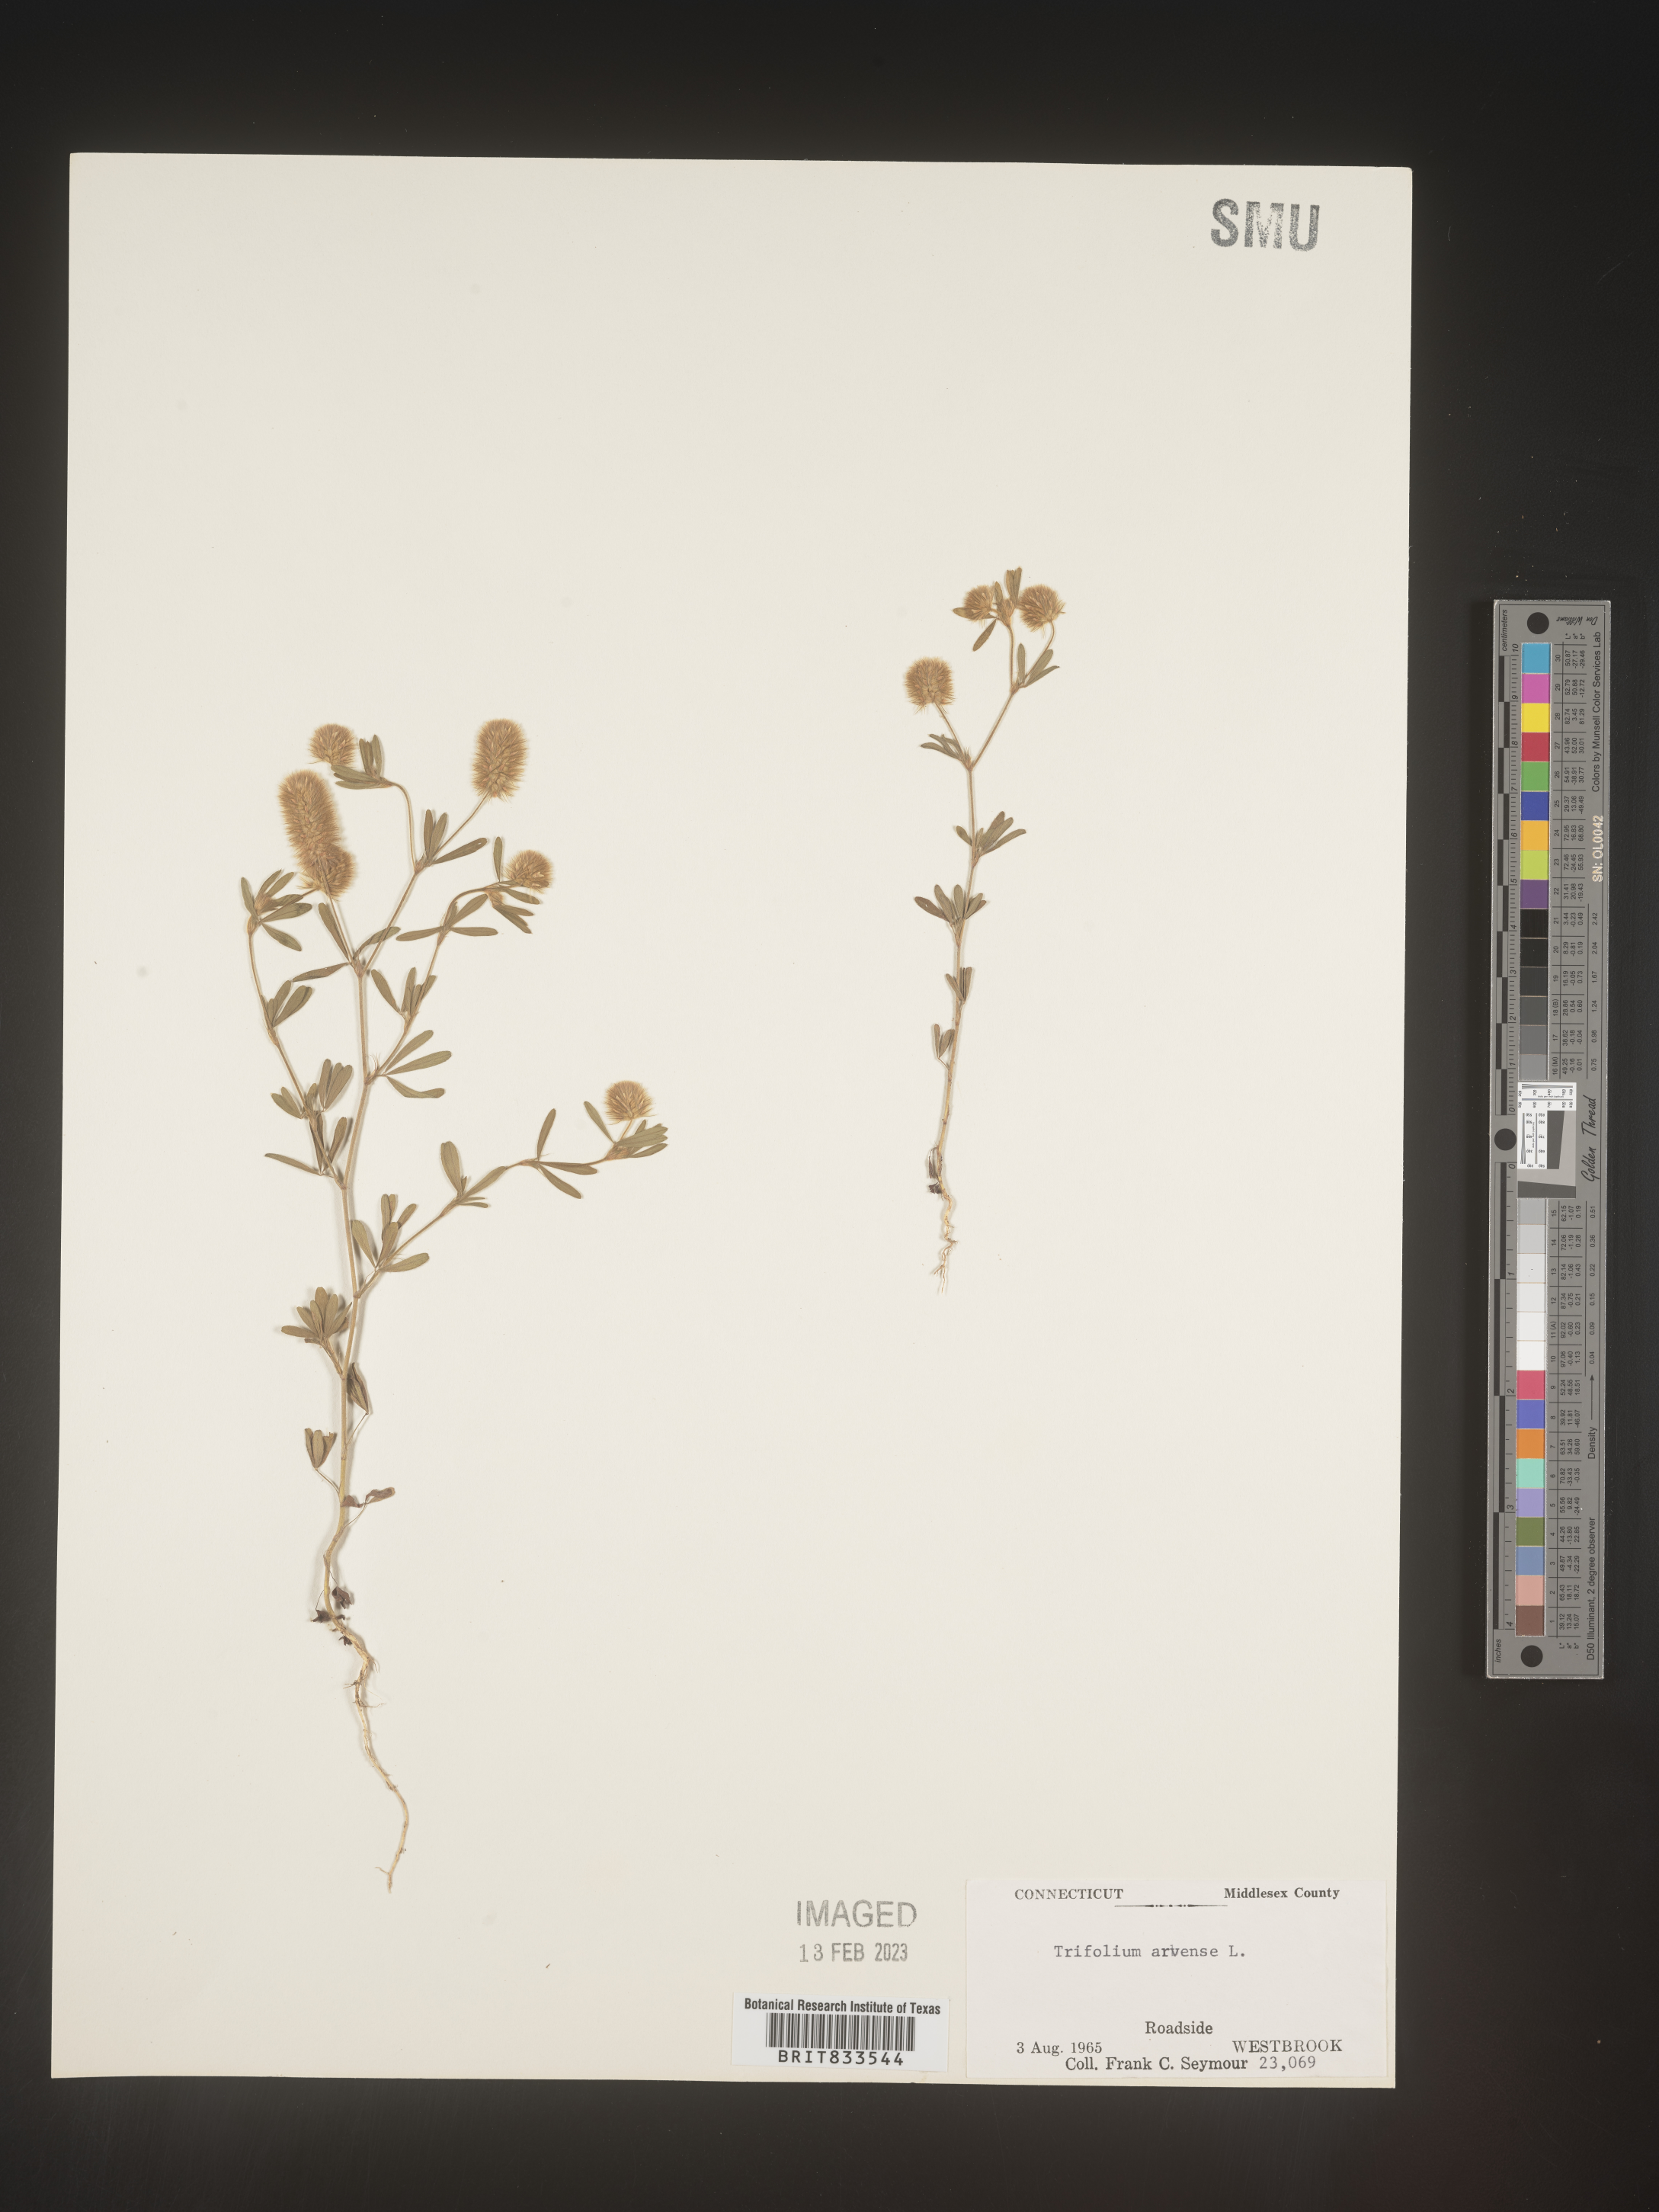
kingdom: Plantae
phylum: Tracheophyta
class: Magnoliopsida
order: Fabales
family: Fabaceae
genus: Trifolium
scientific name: Trifolium arvense
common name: Hare's-foot clover
